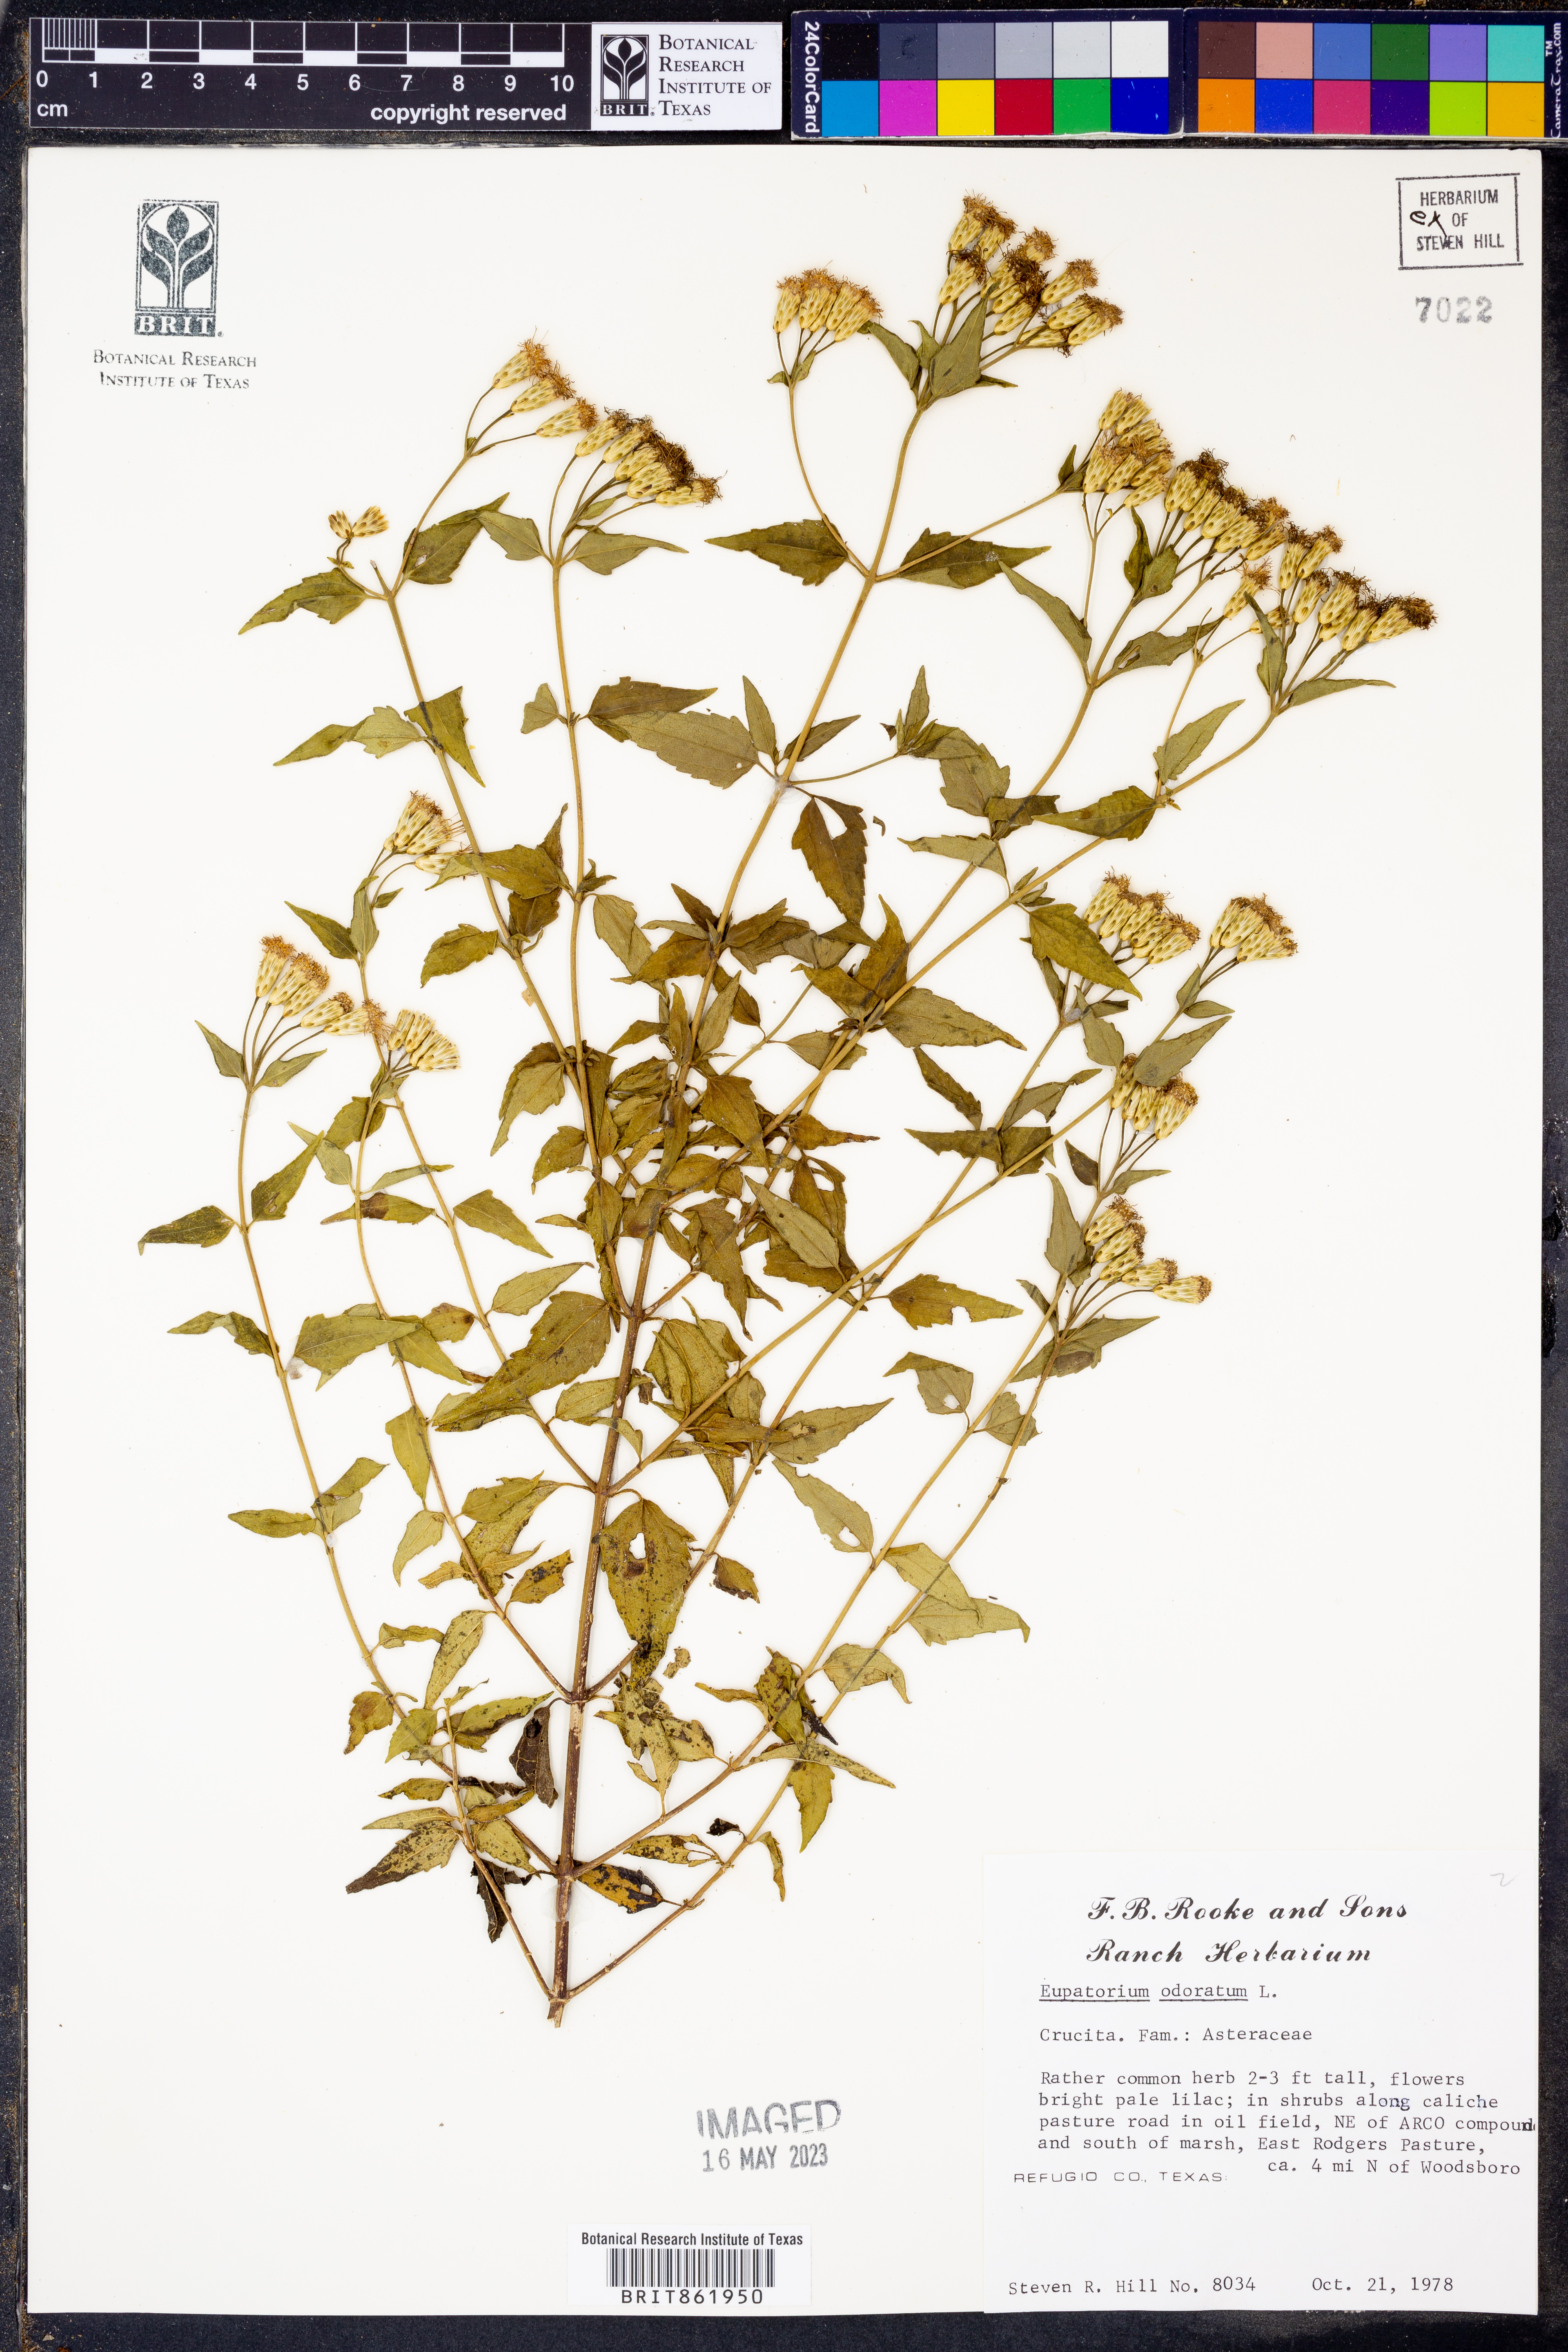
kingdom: Plantae
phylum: Tracheophyta
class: Magnoliopsida
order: Asterales
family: Asteraceae
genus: Ageratina
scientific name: Ageratina altissima
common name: White snakeroot
